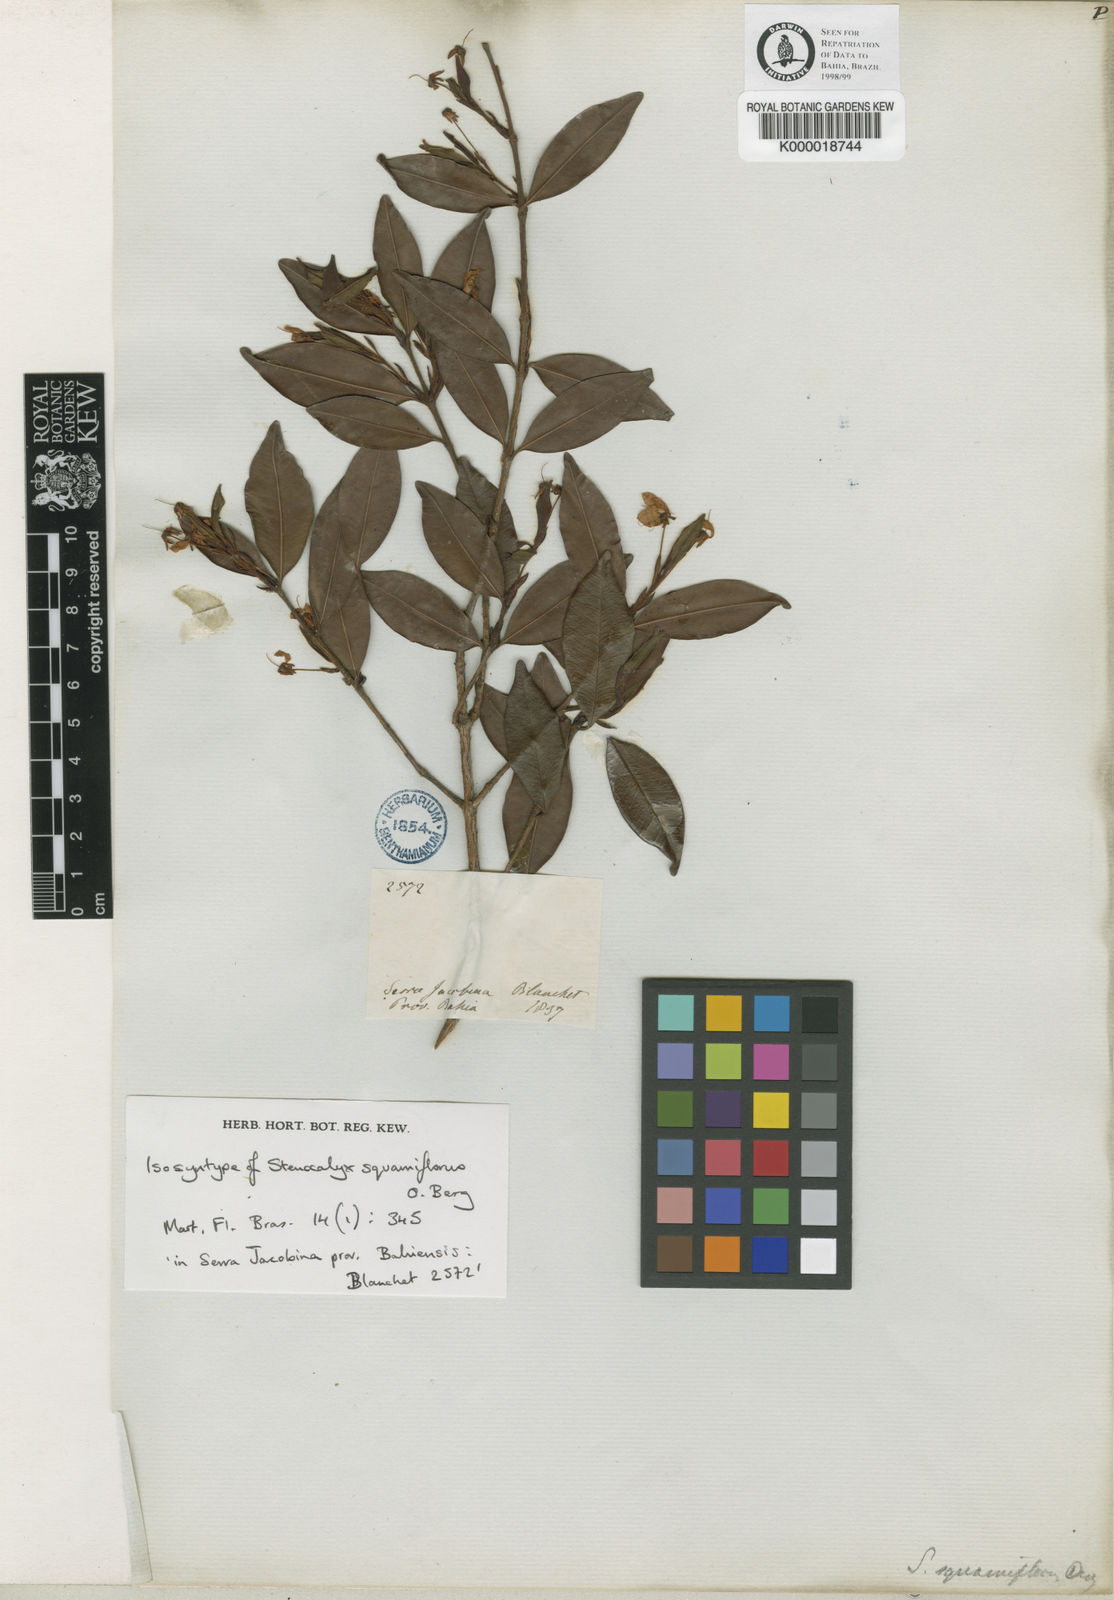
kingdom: Plantae
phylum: Tracheophyta
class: Magnoliopsida
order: Myrtales
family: Myrtaceae
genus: Eugenia
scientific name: Eugenia ligustrina
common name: Privet stopper
